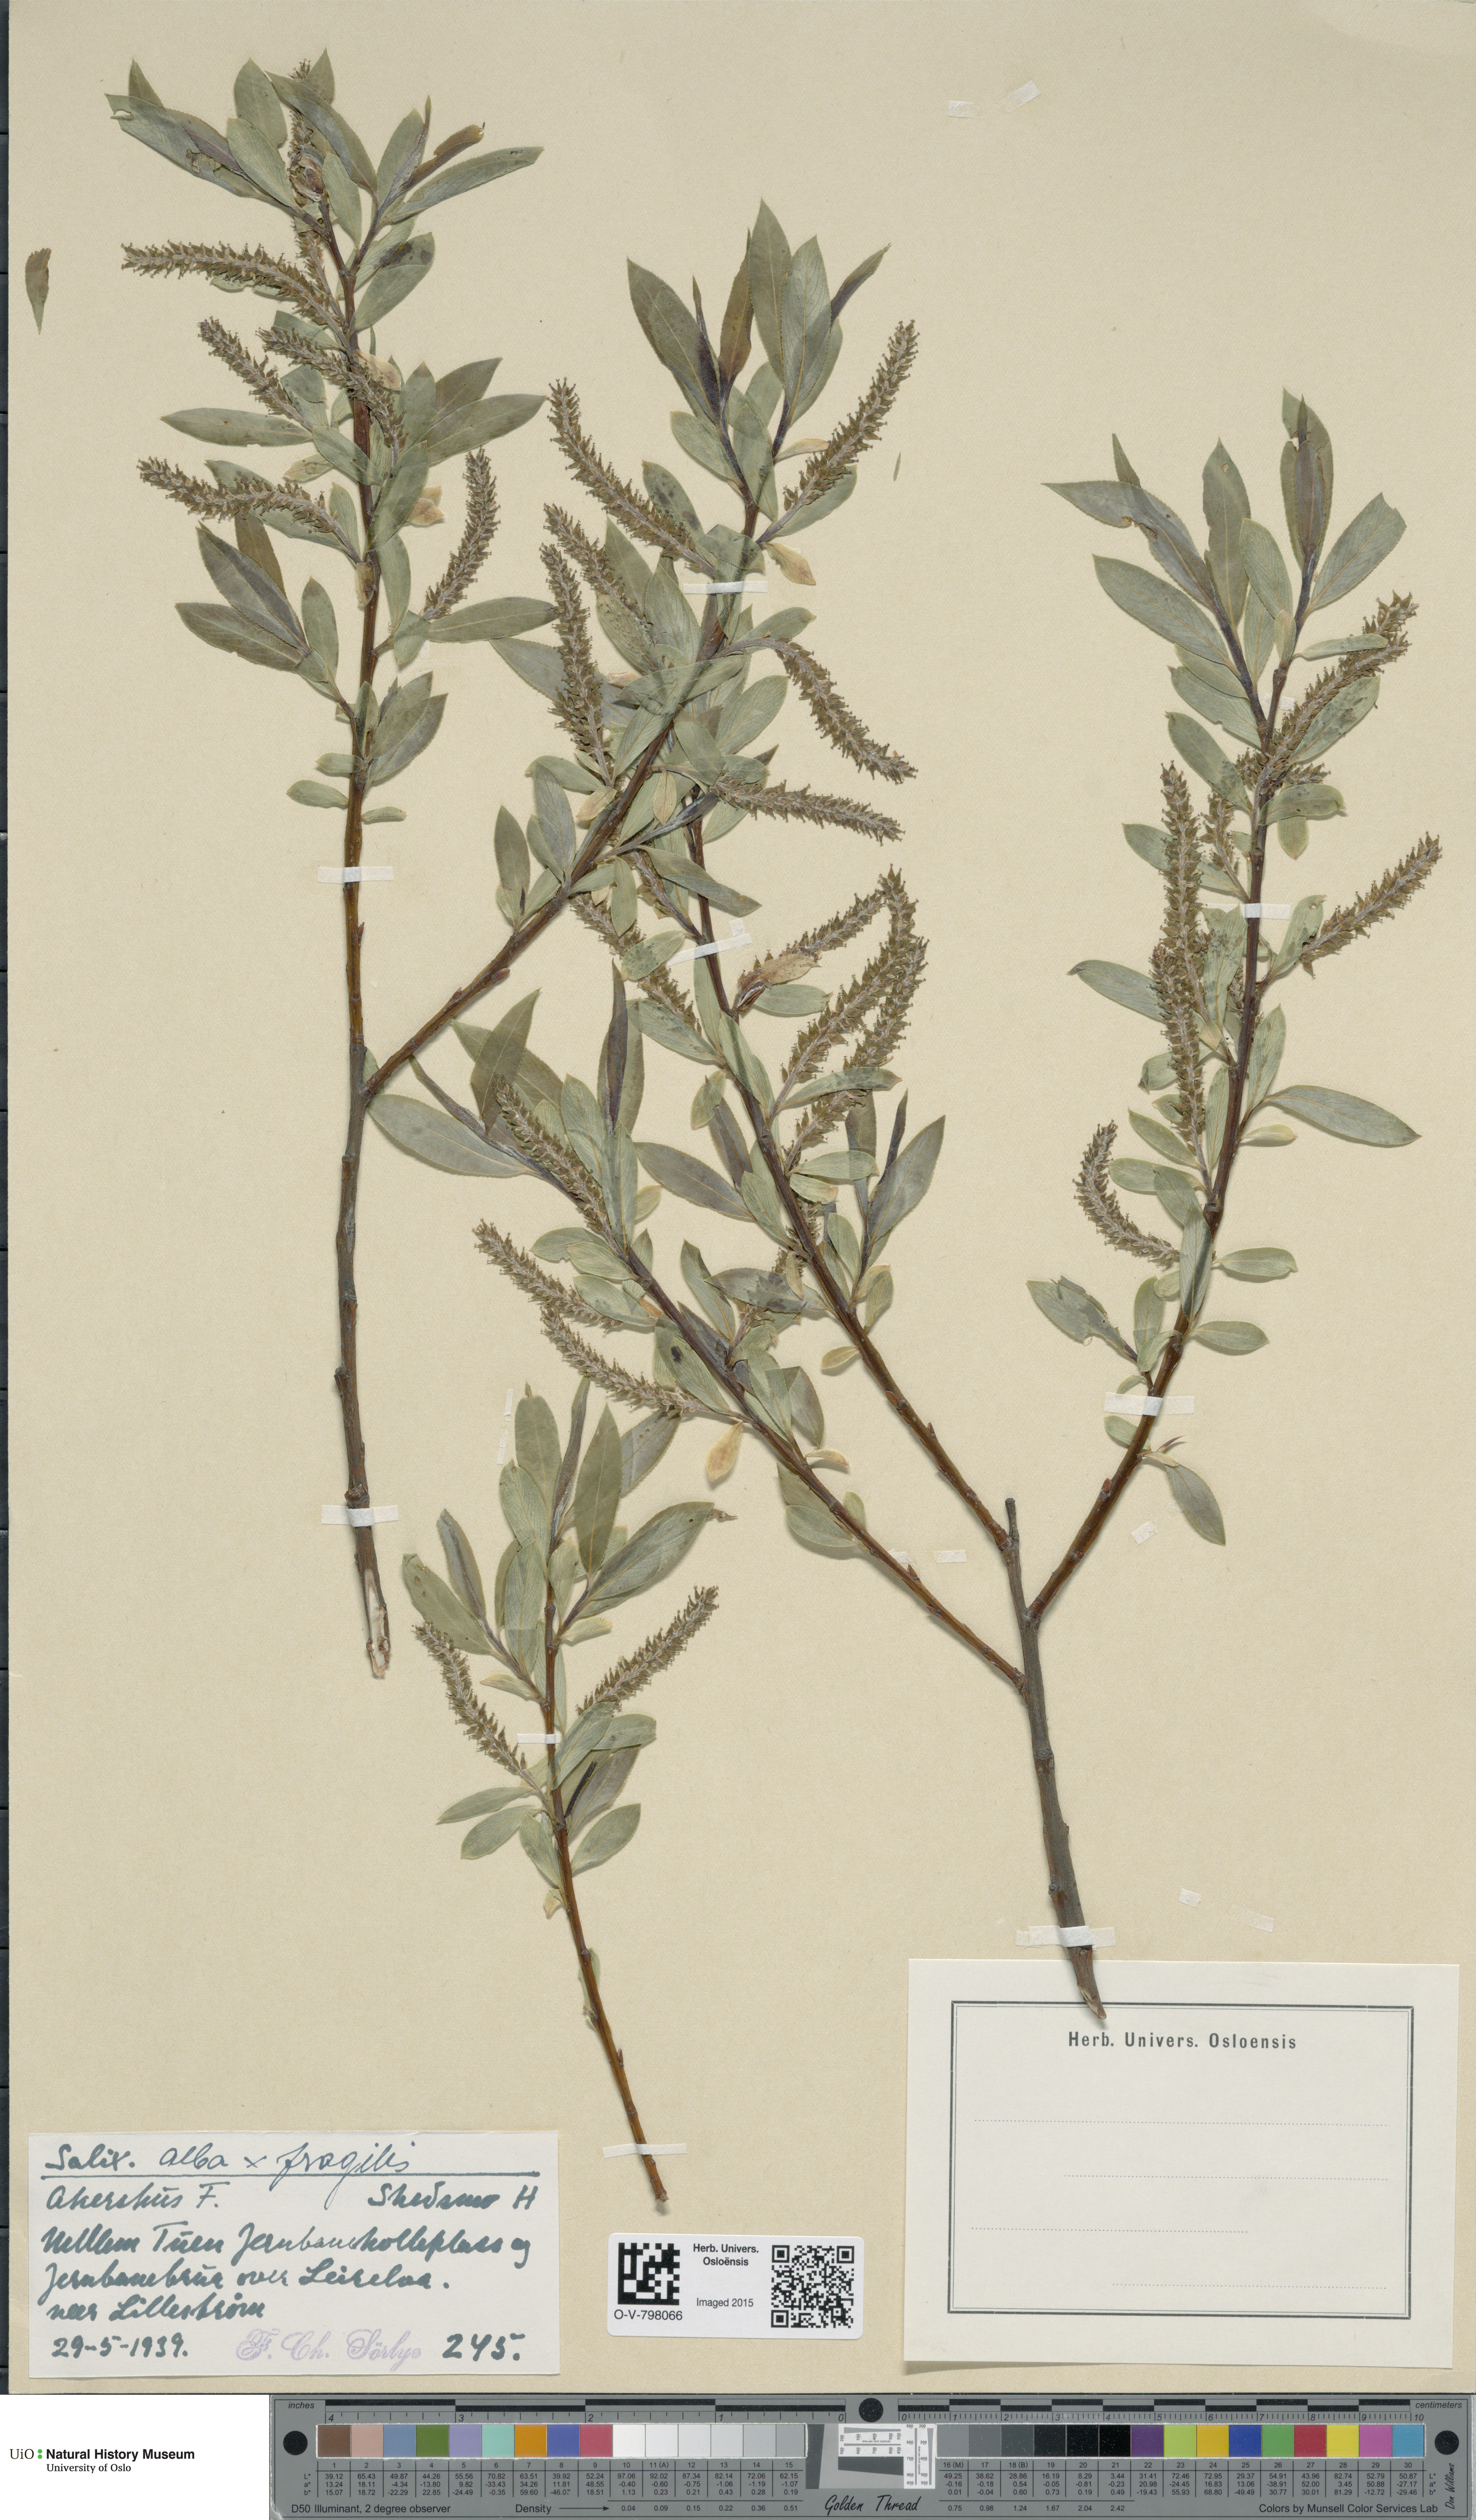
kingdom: Plantae
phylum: Tracheophyta
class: Magnoliopsida
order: Malpighiales
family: Salicaceae
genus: Salix
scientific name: Salix
